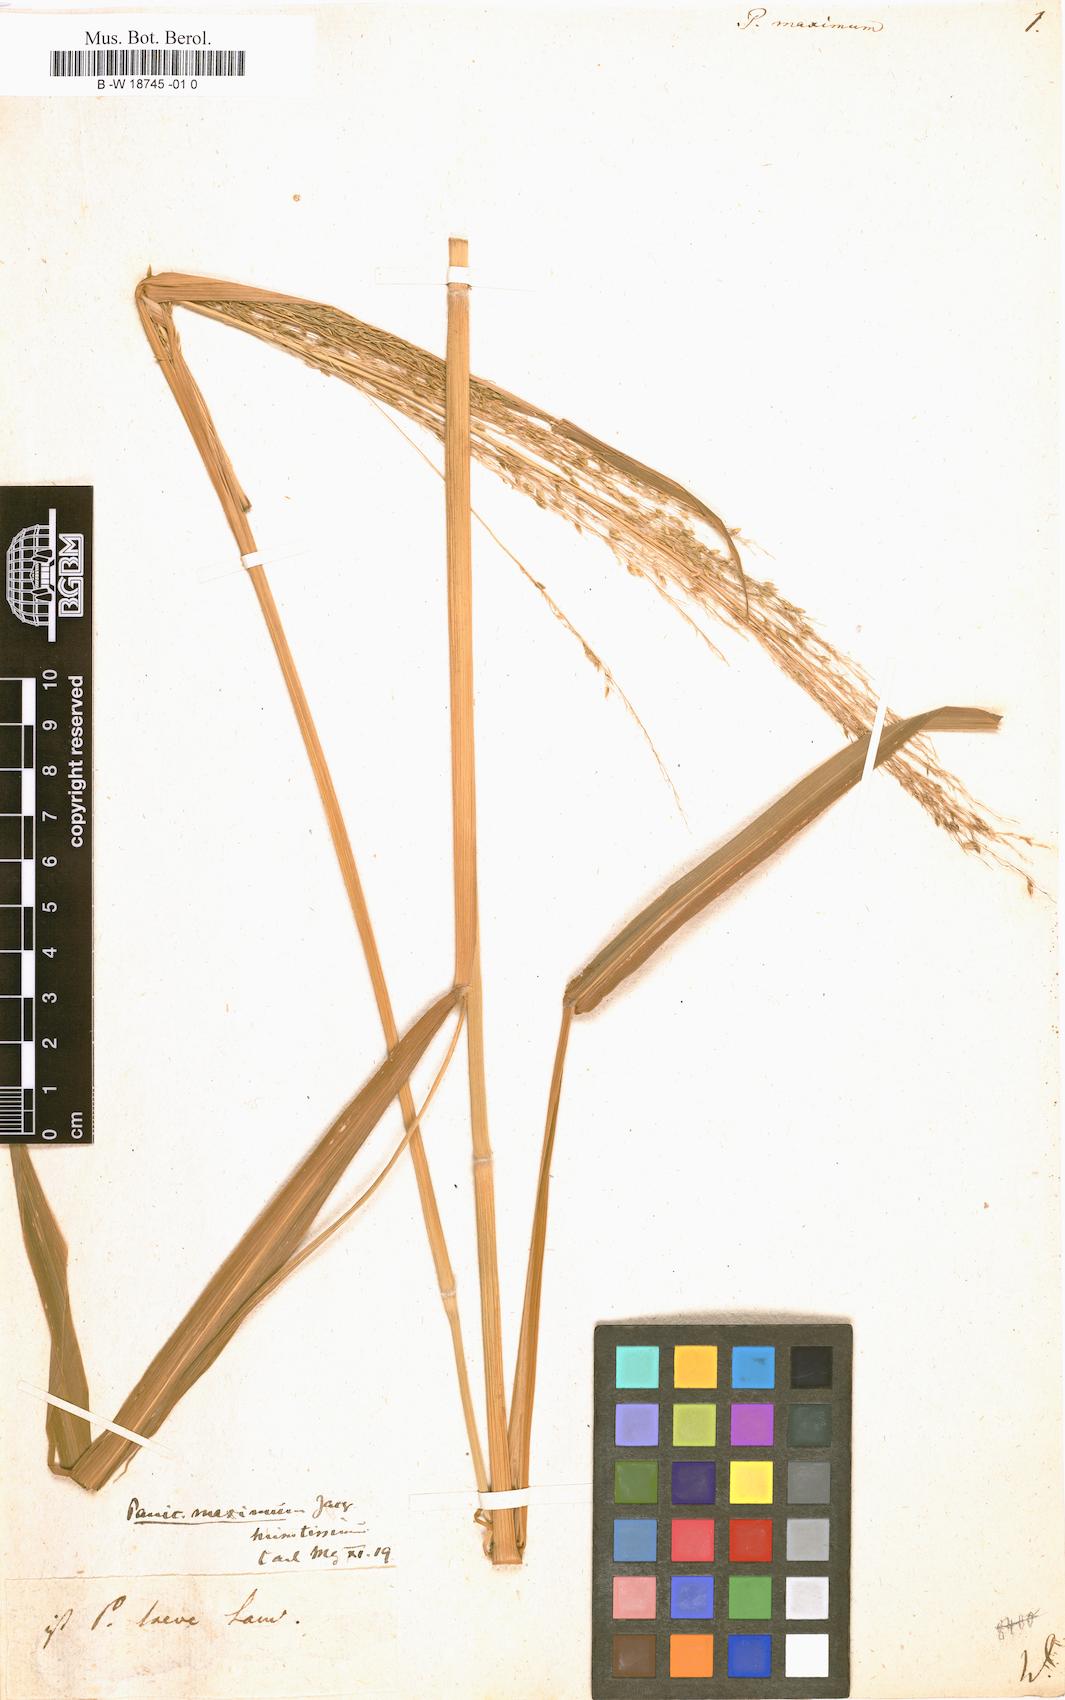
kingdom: Plantae
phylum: Tracheophyta
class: Liliopsida
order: Poales
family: Poaceae
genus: Megathyrsus
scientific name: Megathyrsus maximus
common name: Guineagrass
